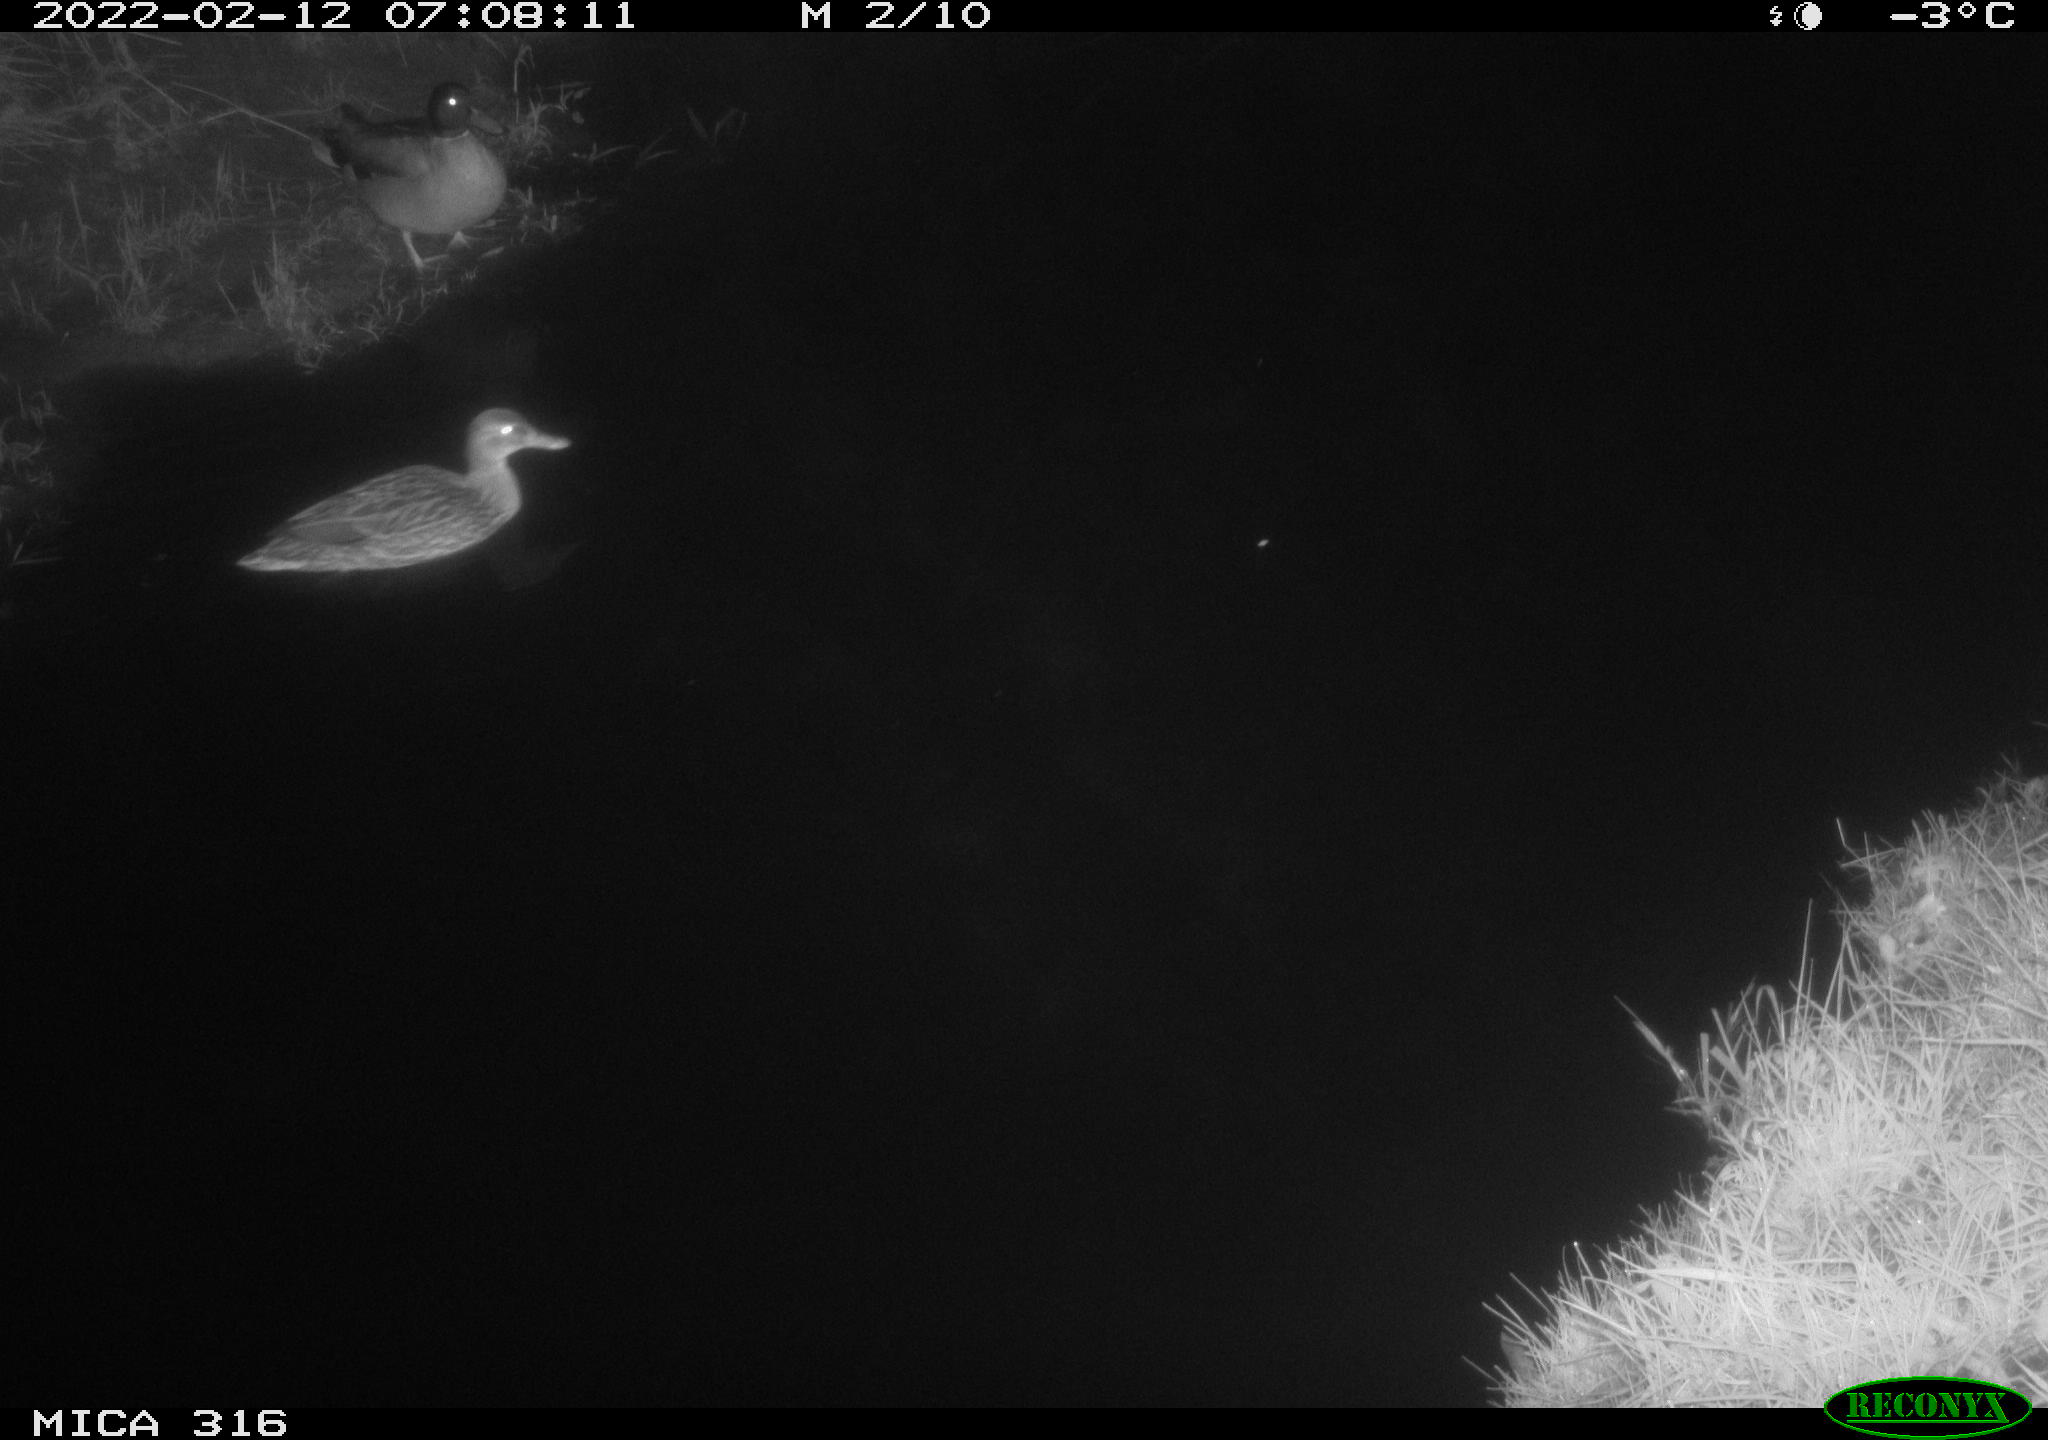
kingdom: Animalia
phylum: Chordata
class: Aves
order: Anseriformes
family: Anatidae
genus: Anas
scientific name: Anas platyrhynchos
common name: Mallard
